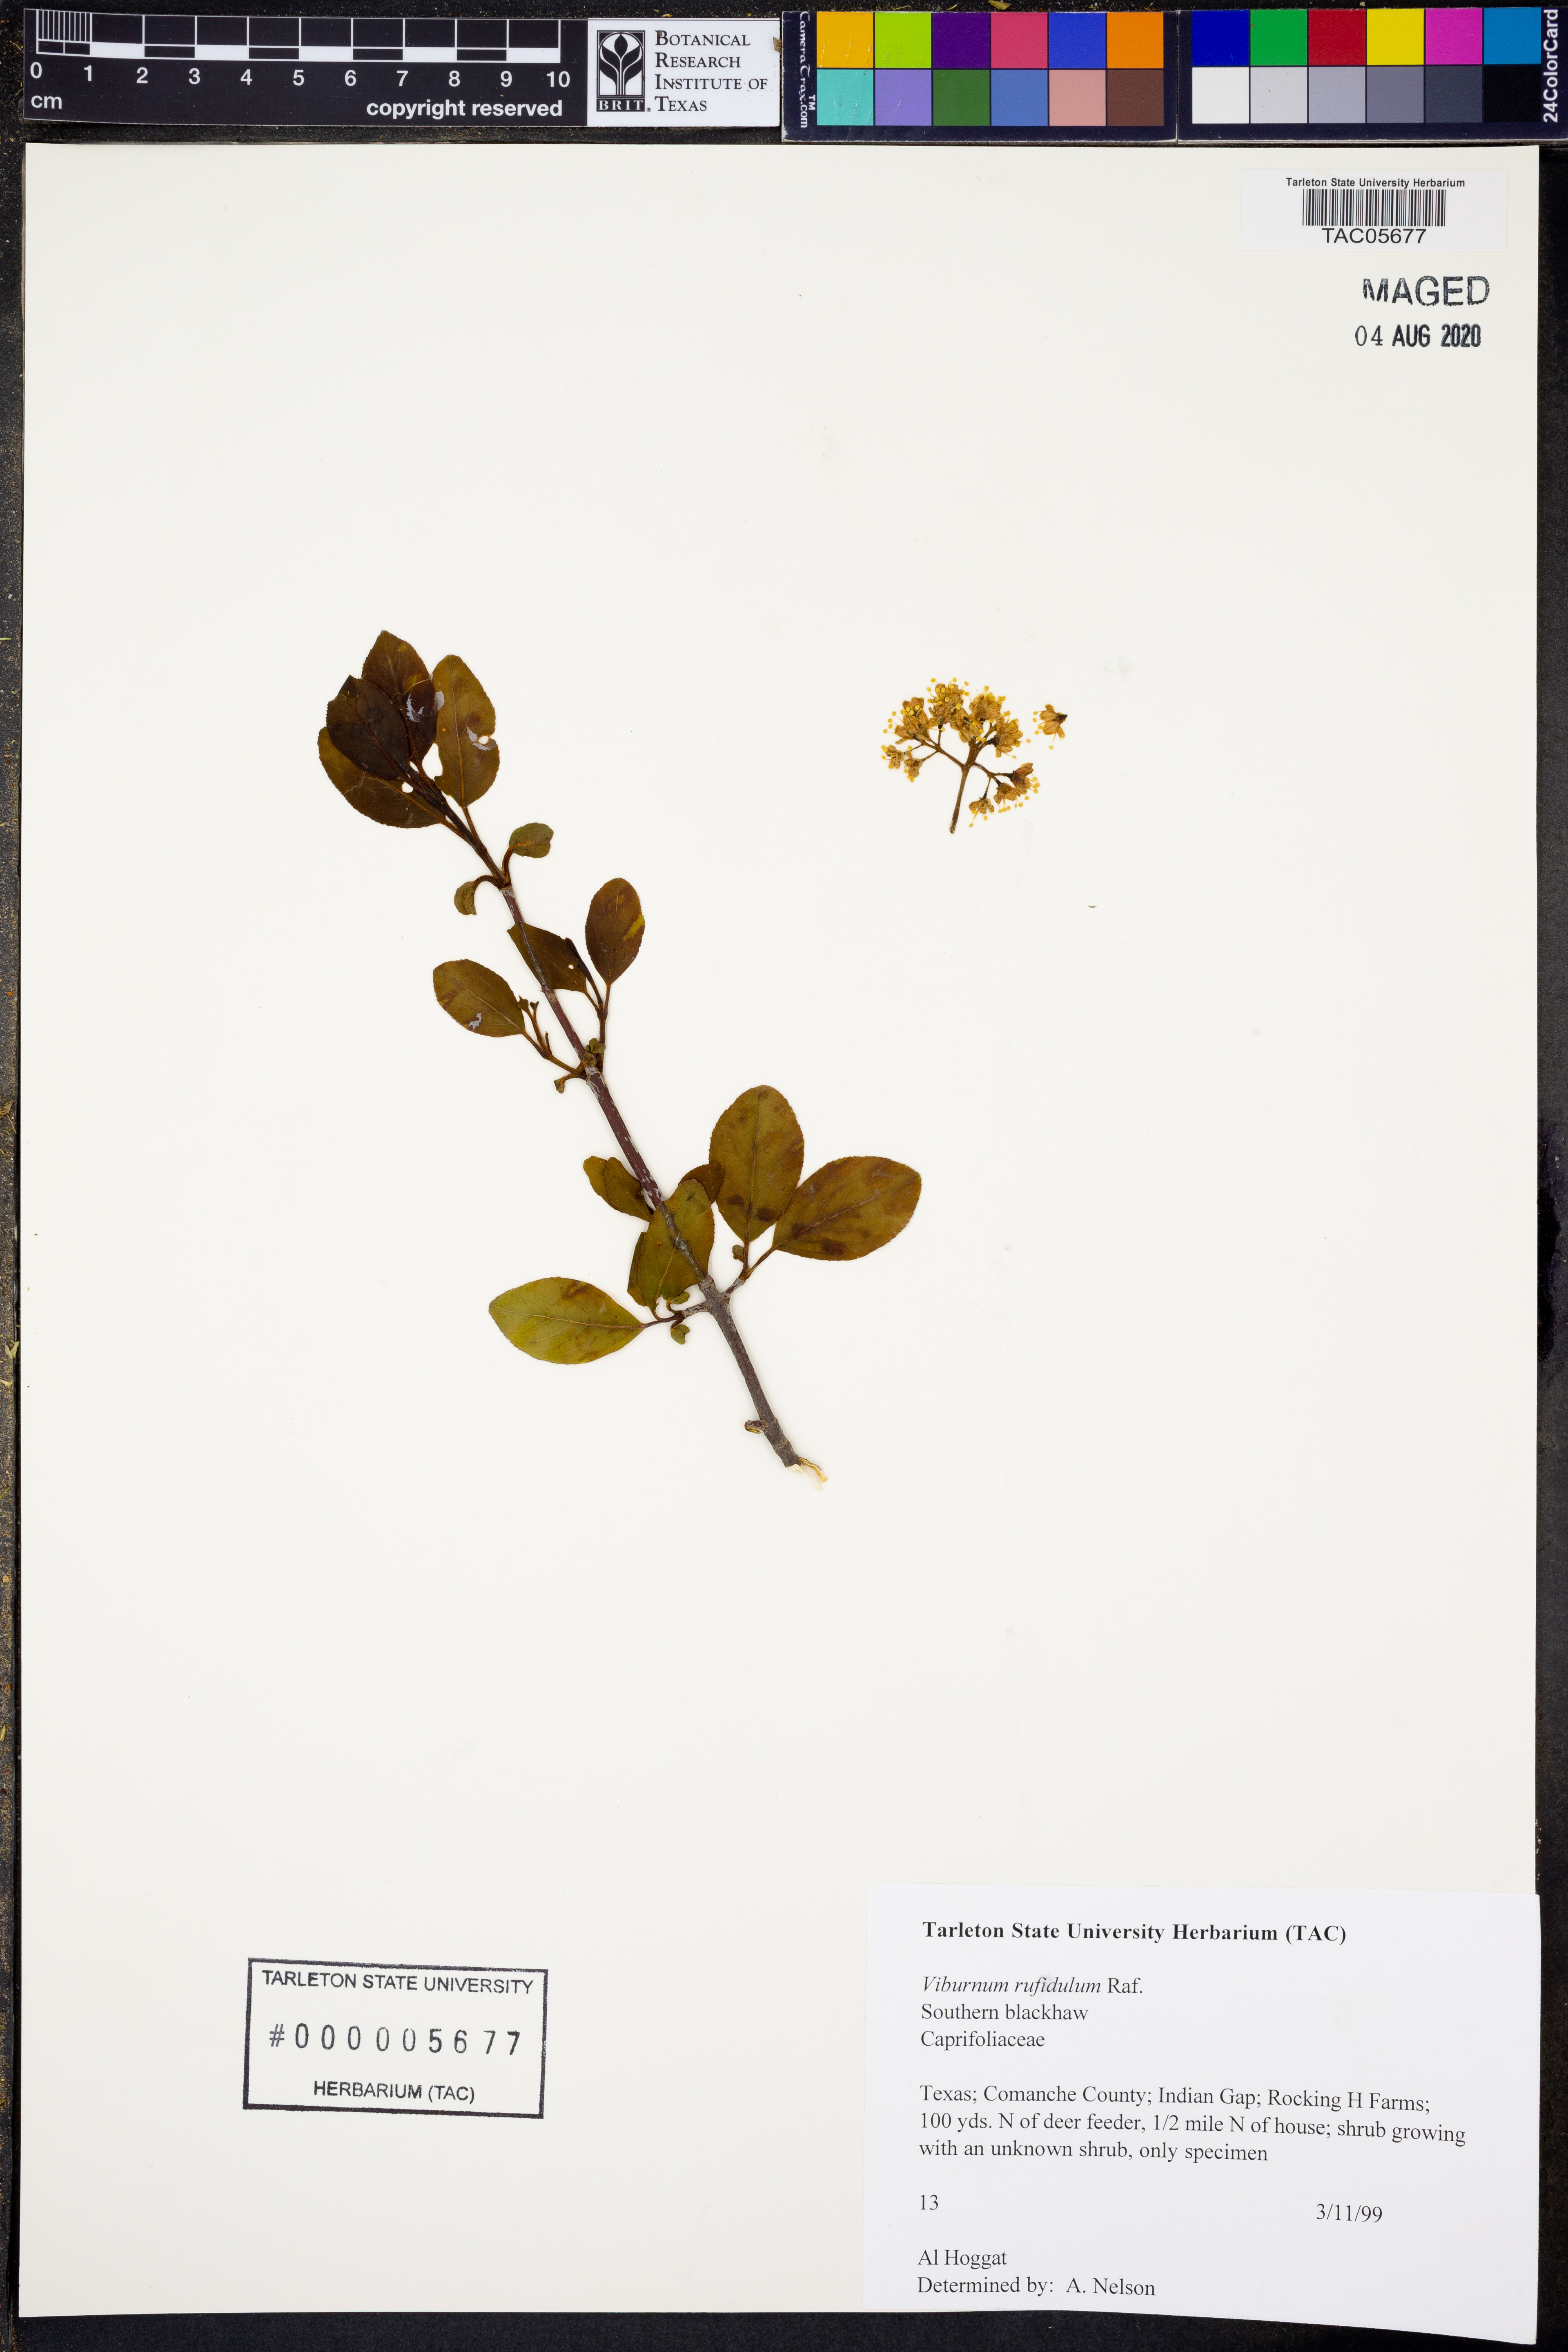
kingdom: Plantae
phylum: Tracheophyta
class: Magnoliopsida
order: Dipsacales
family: Viburnaceae
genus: Viburnum
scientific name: Viburnum rufidulum
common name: Blue haw
